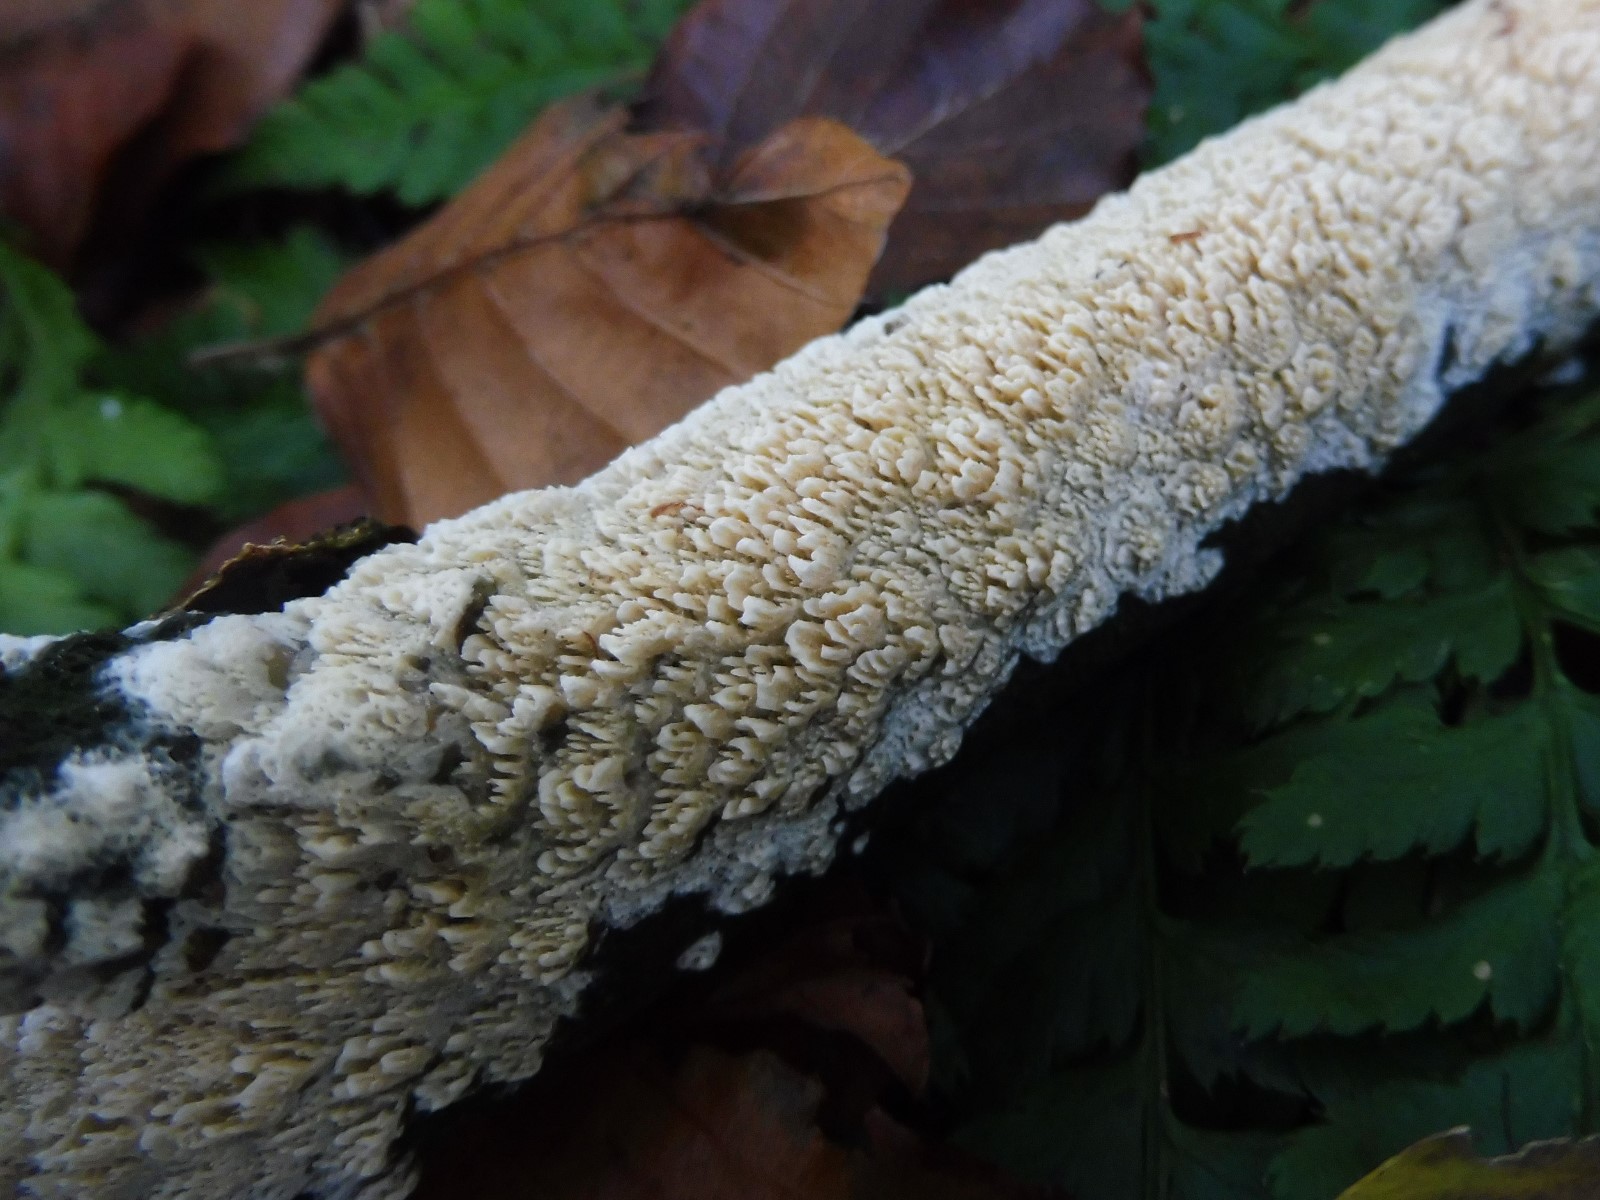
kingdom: Fungi
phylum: Basidiomycota
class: Agaricomycetes
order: Hymenochaetales
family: Schizoporaceae
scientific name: Schizoporaceae
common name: tandsvampfamilien
